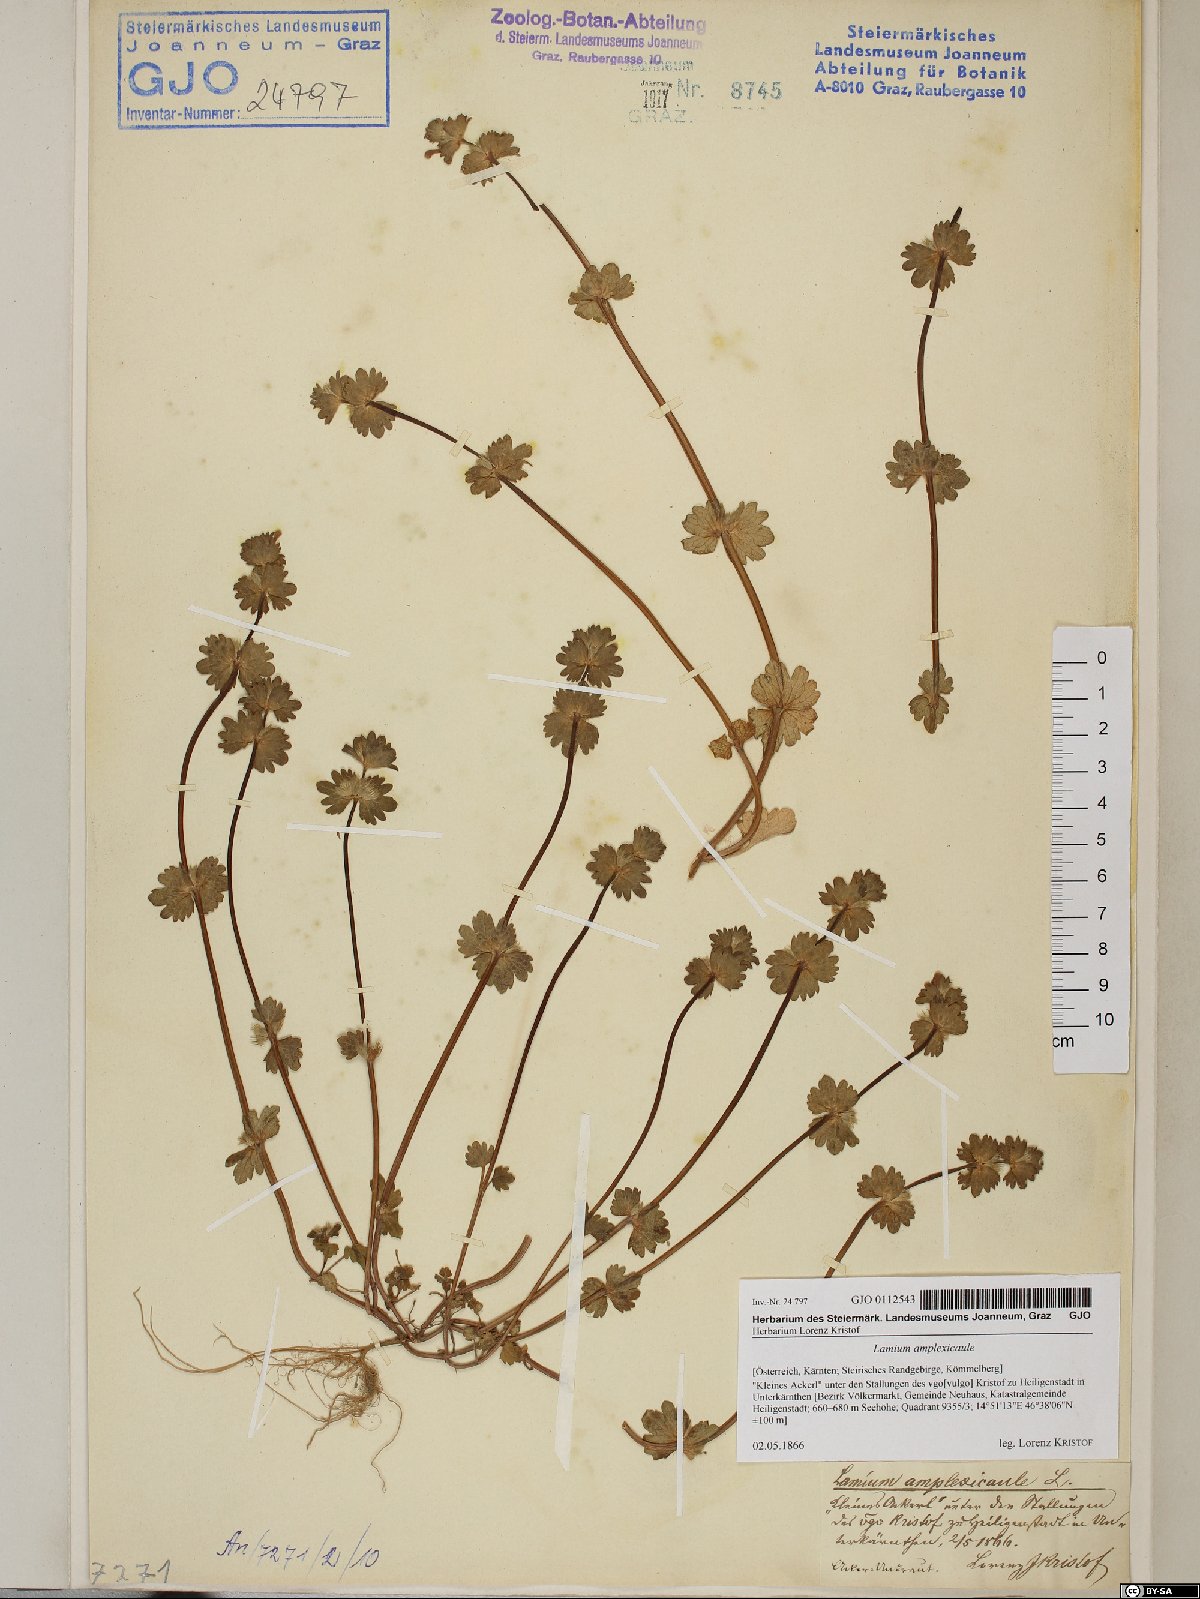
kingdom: Plantae
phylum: Tracheophyta
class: Magnoliopsida
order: Lamiales
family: Lamiaceae
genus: Lamium
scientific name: Lamium amplexicaule
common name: Henbit dead-nettle
